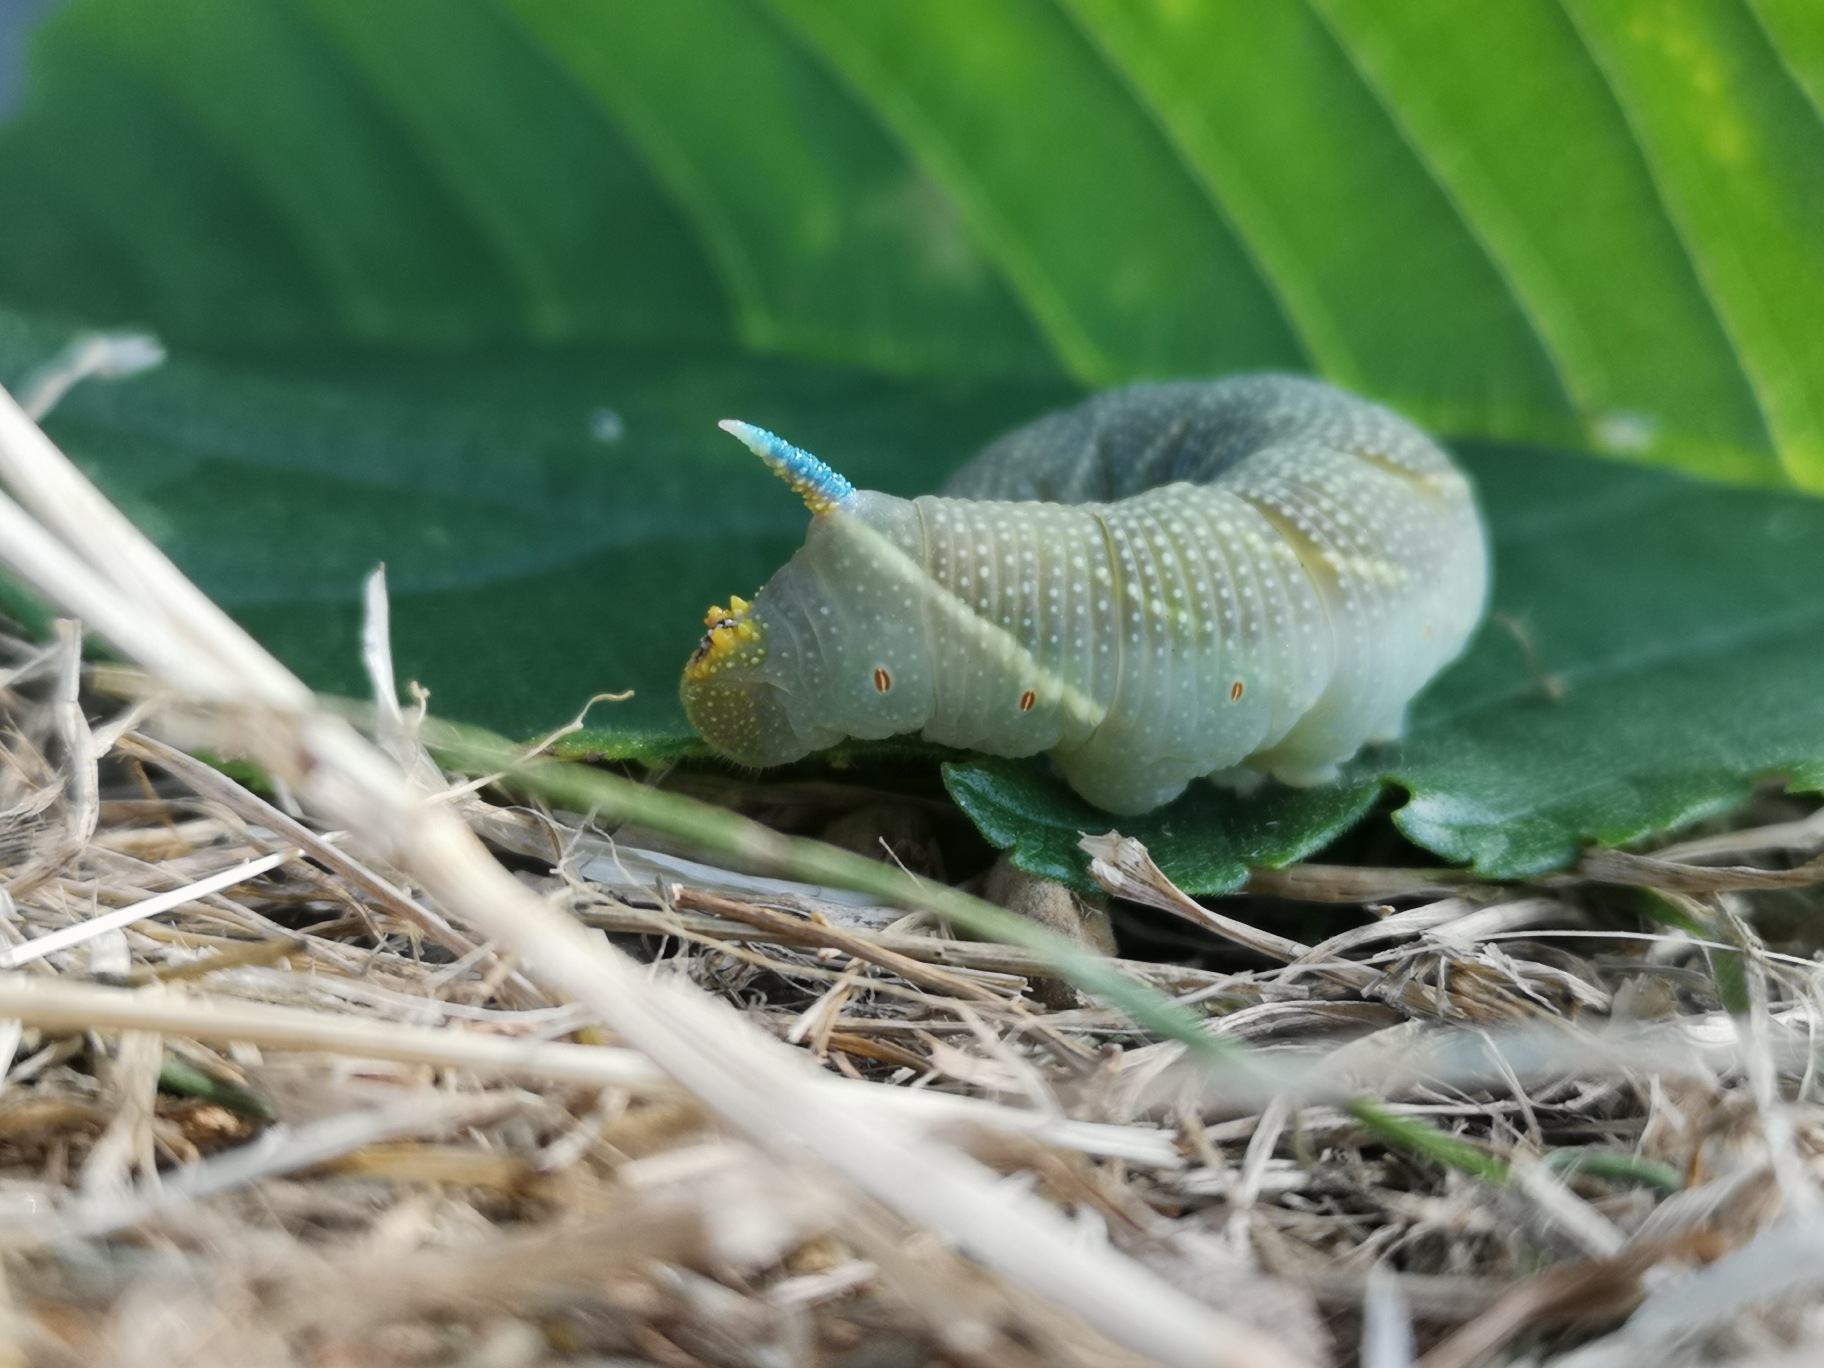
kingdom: Animalia
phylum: Arthropoda
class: Insecta
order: Lepidoptera
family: Sphingidae
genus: Mimas
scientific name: Mimas tiliae
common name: Lindesværmer
